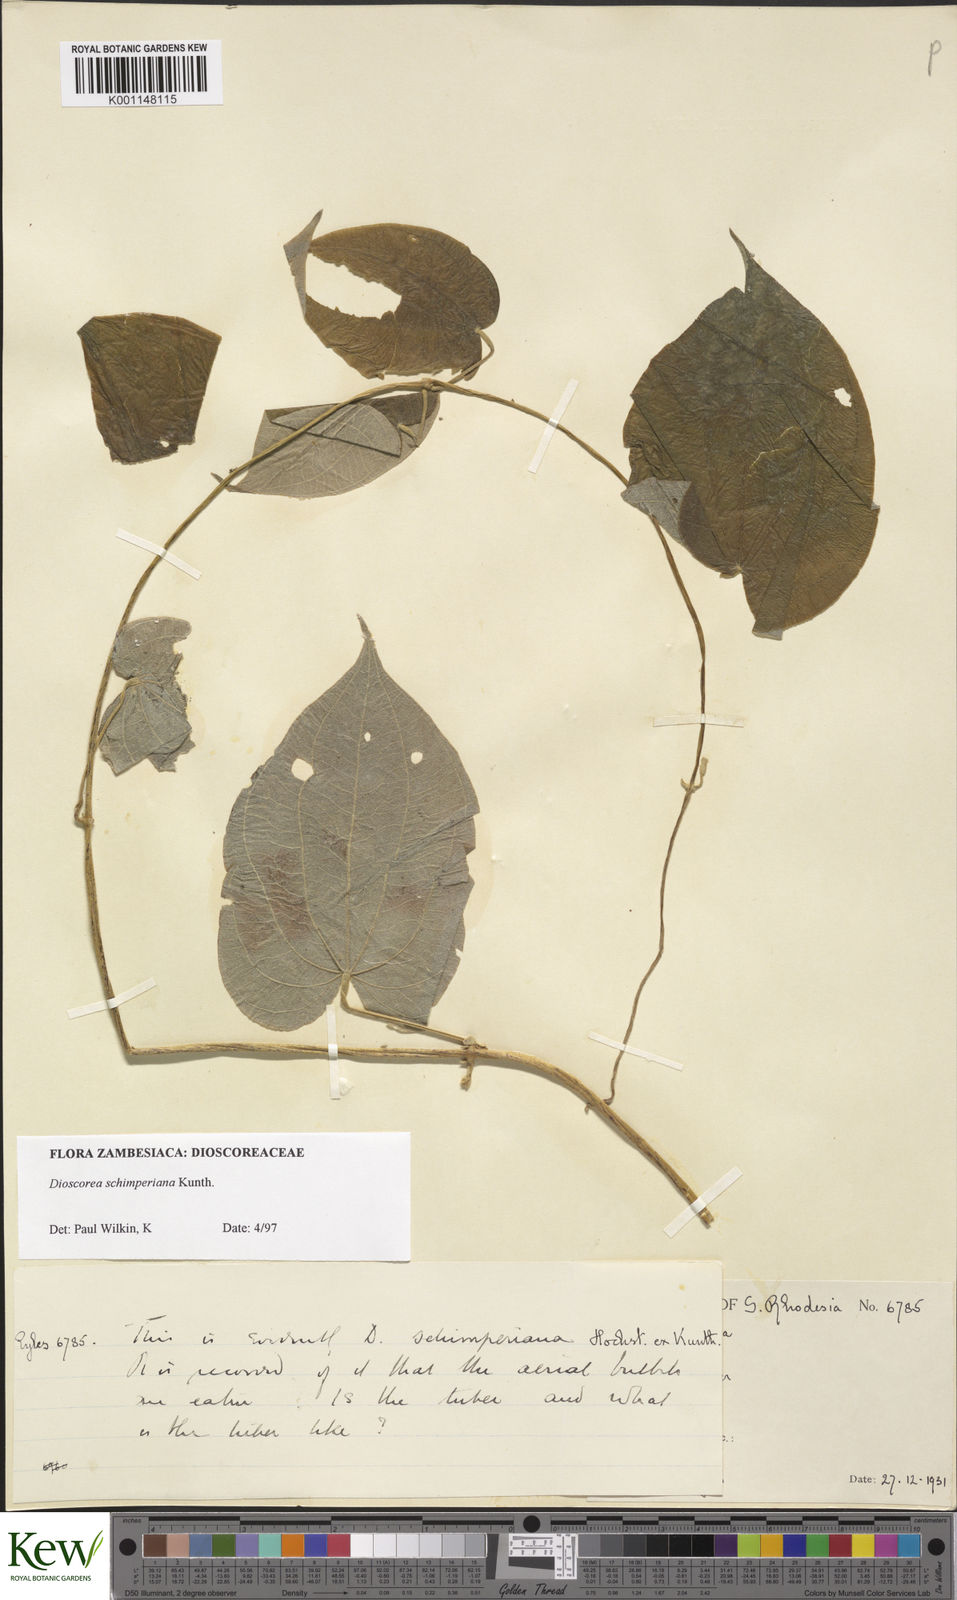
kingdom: Plantae
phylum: Tracheophyta
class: Liliopsida
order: Dioscoreales
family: Dioscoreaceae
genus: Dioscorea
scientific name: Dioscorea schimperiana
